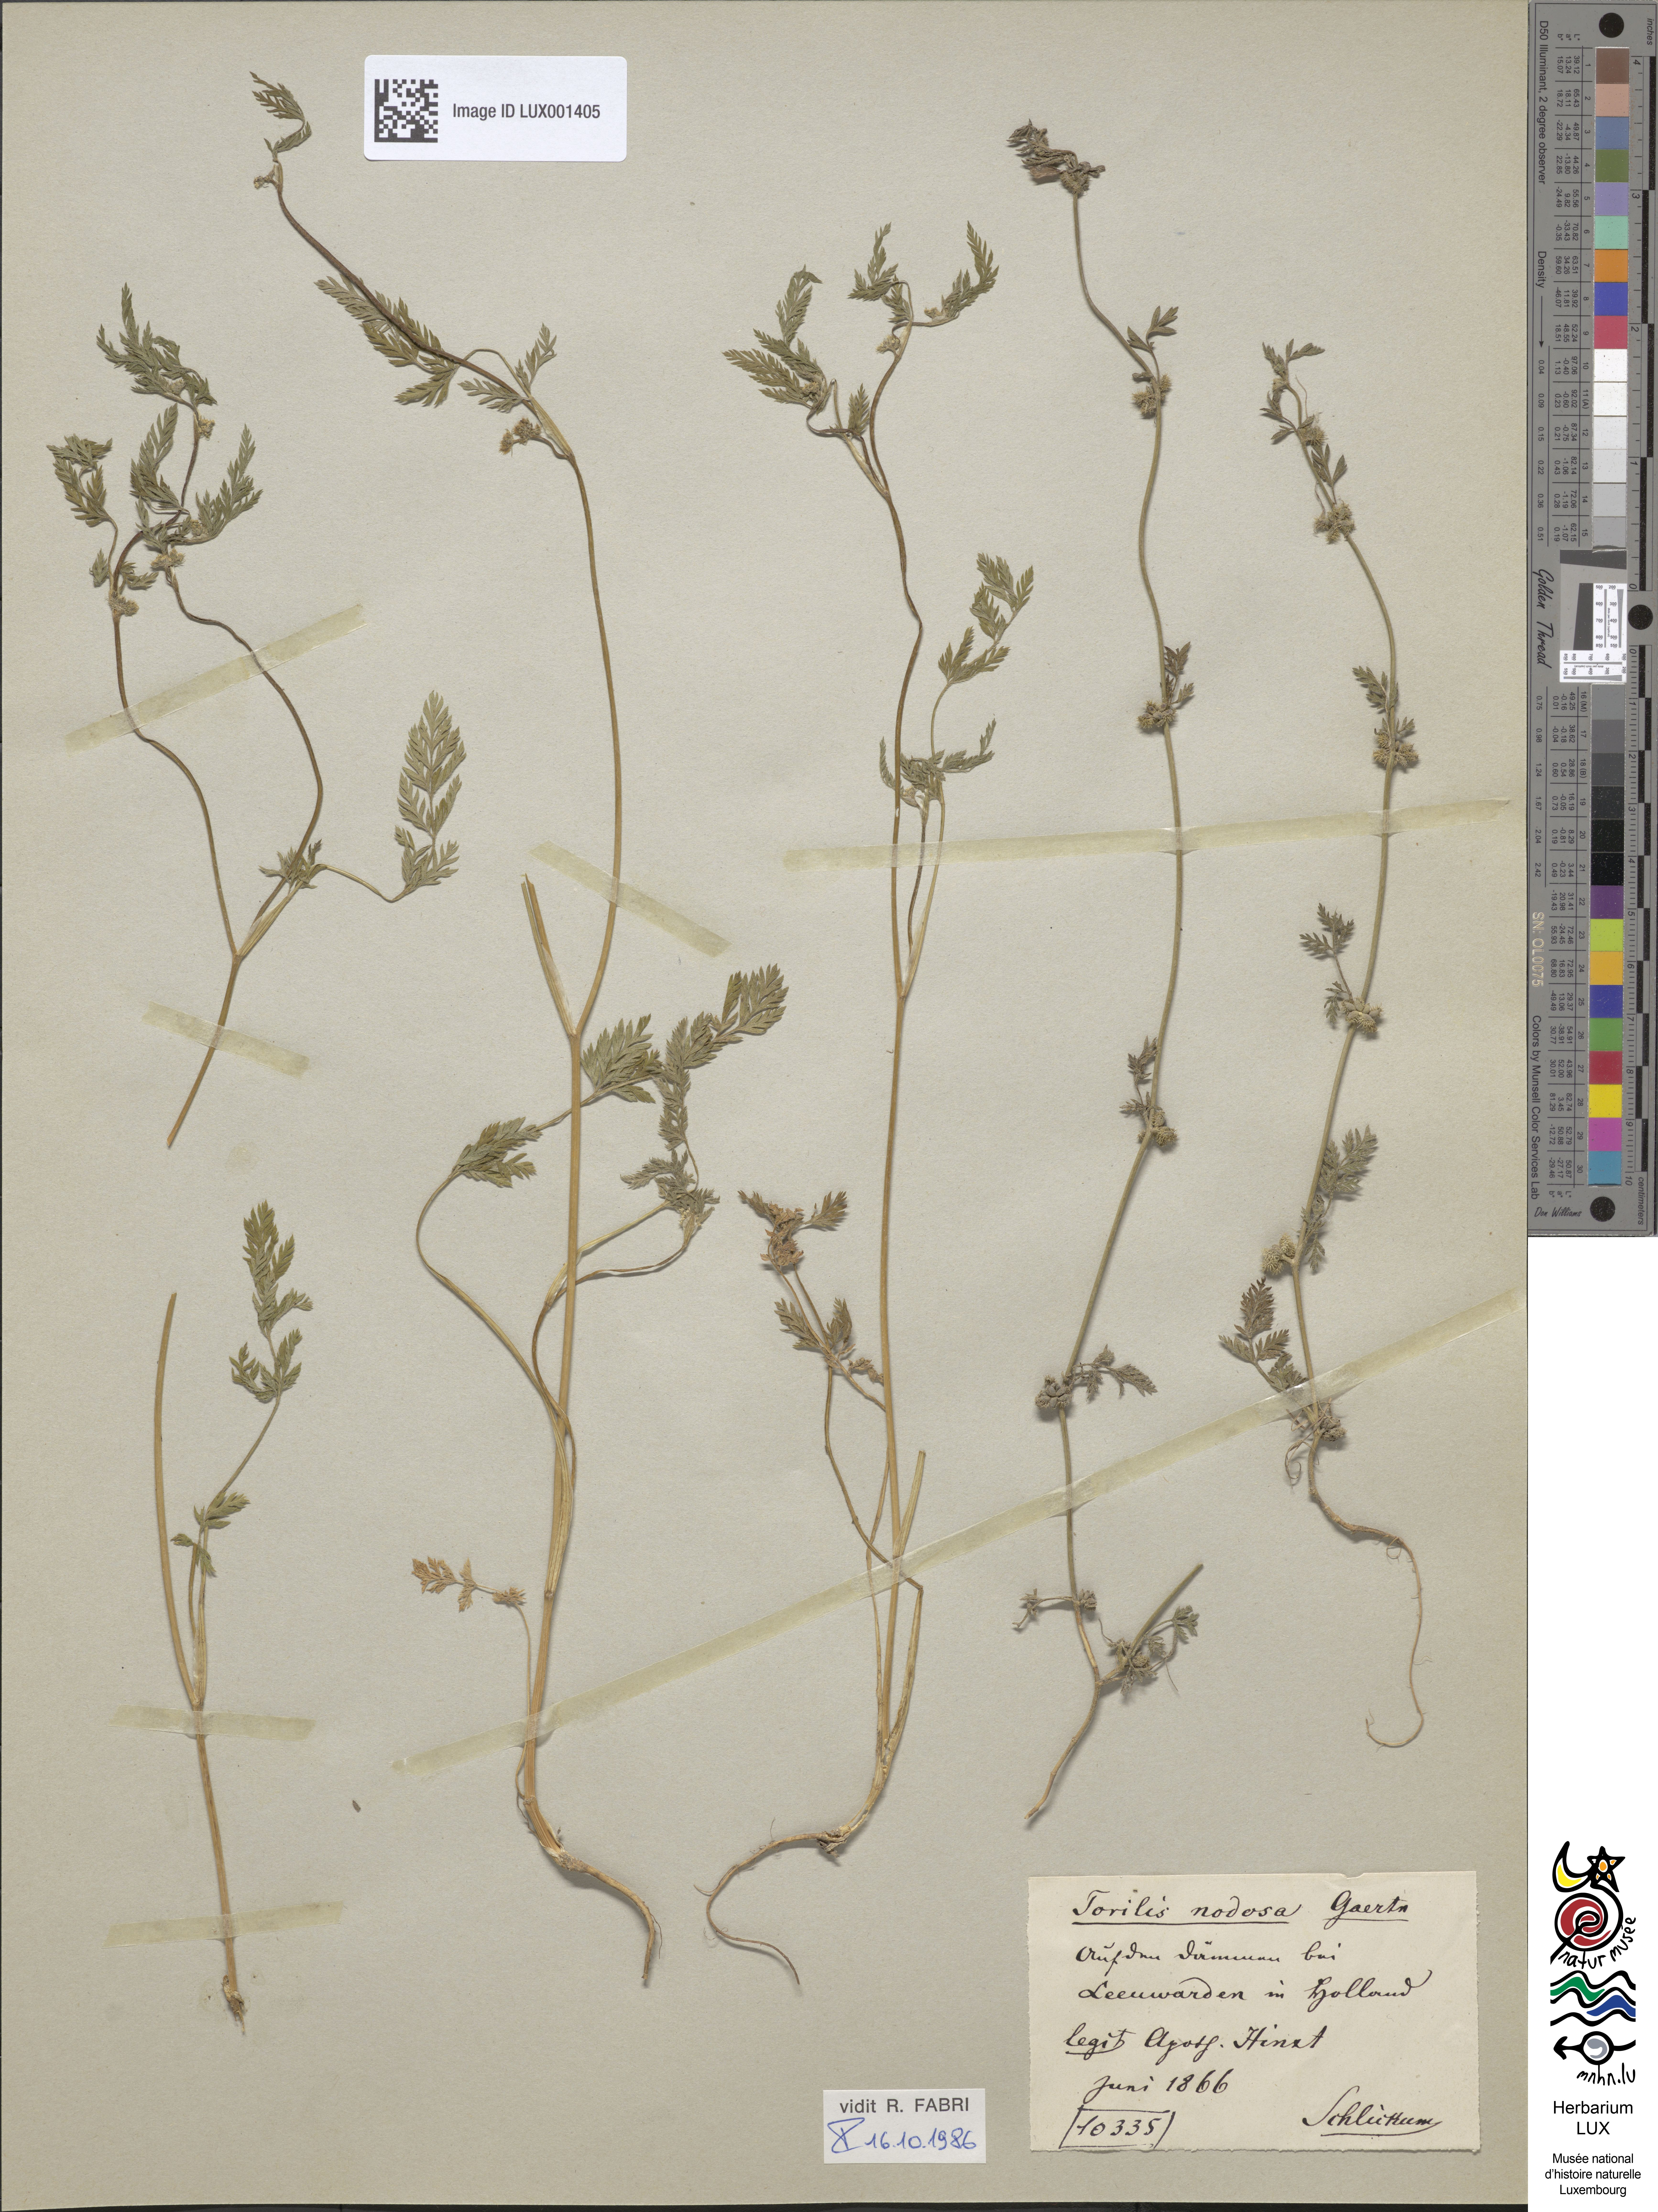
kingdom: Plantae
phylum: Tracheophyta
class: Magnoliopsida
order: Apiales
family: Apiaceae
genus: Torilis
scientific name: Torilis nodosa
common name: Knotted hedge-parsley
